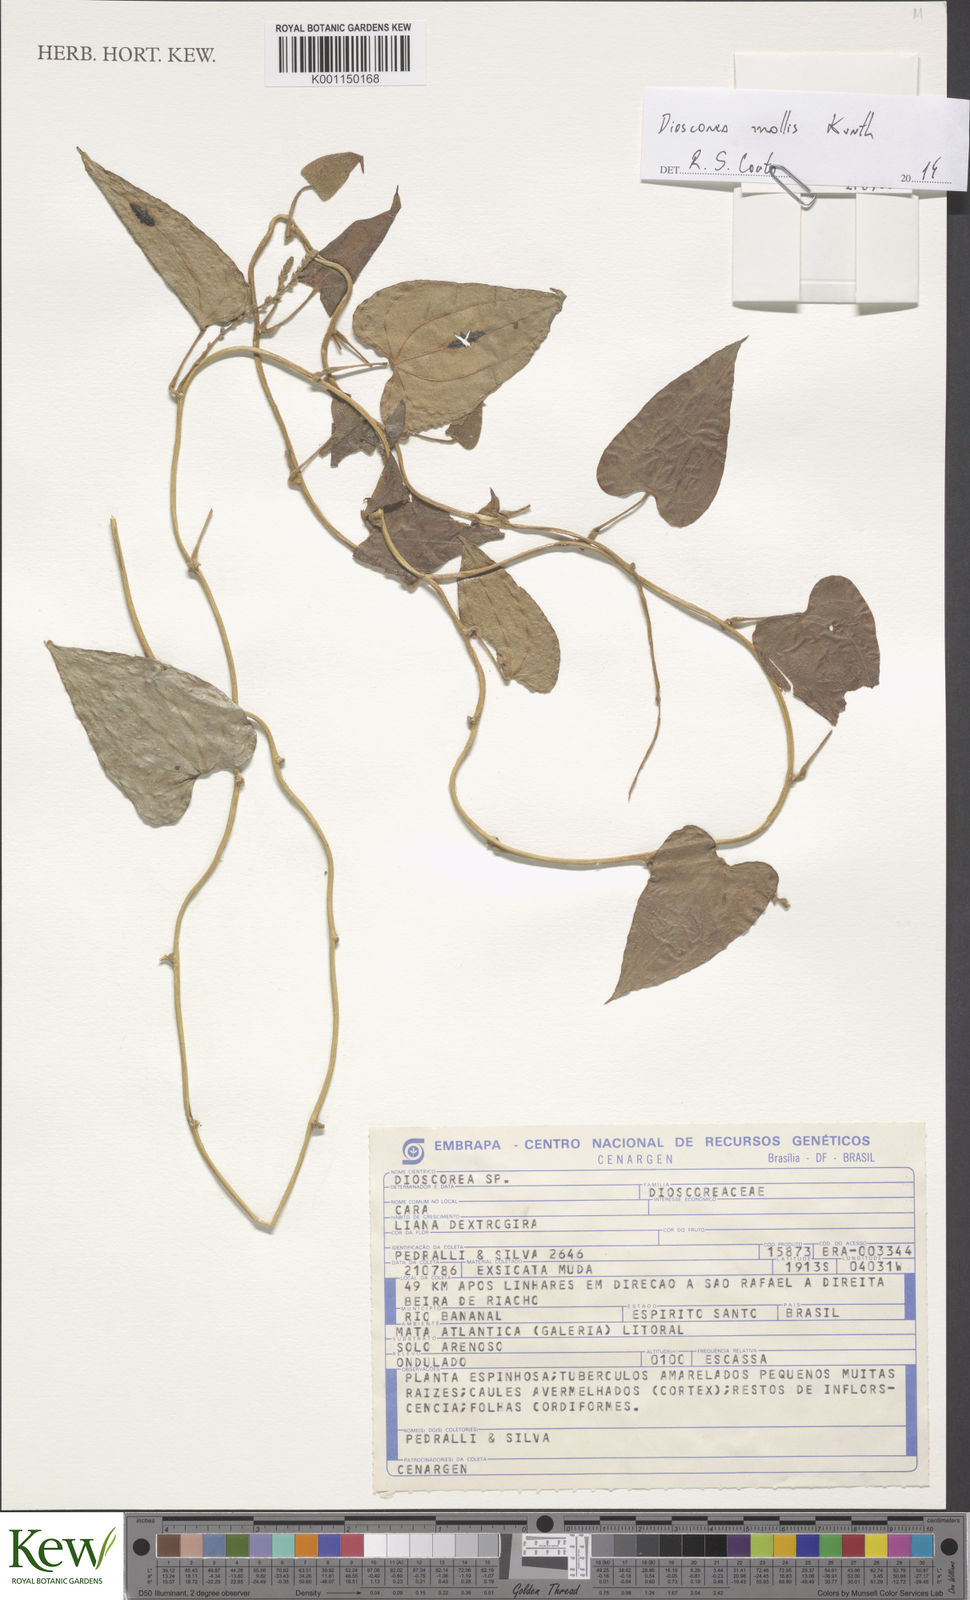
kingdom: Plantae
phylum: Tracheophyta
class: Liliopsida
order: Dioscoreales
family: Dioscoreaceae
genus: Dioscorea
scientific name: Dioscorea
